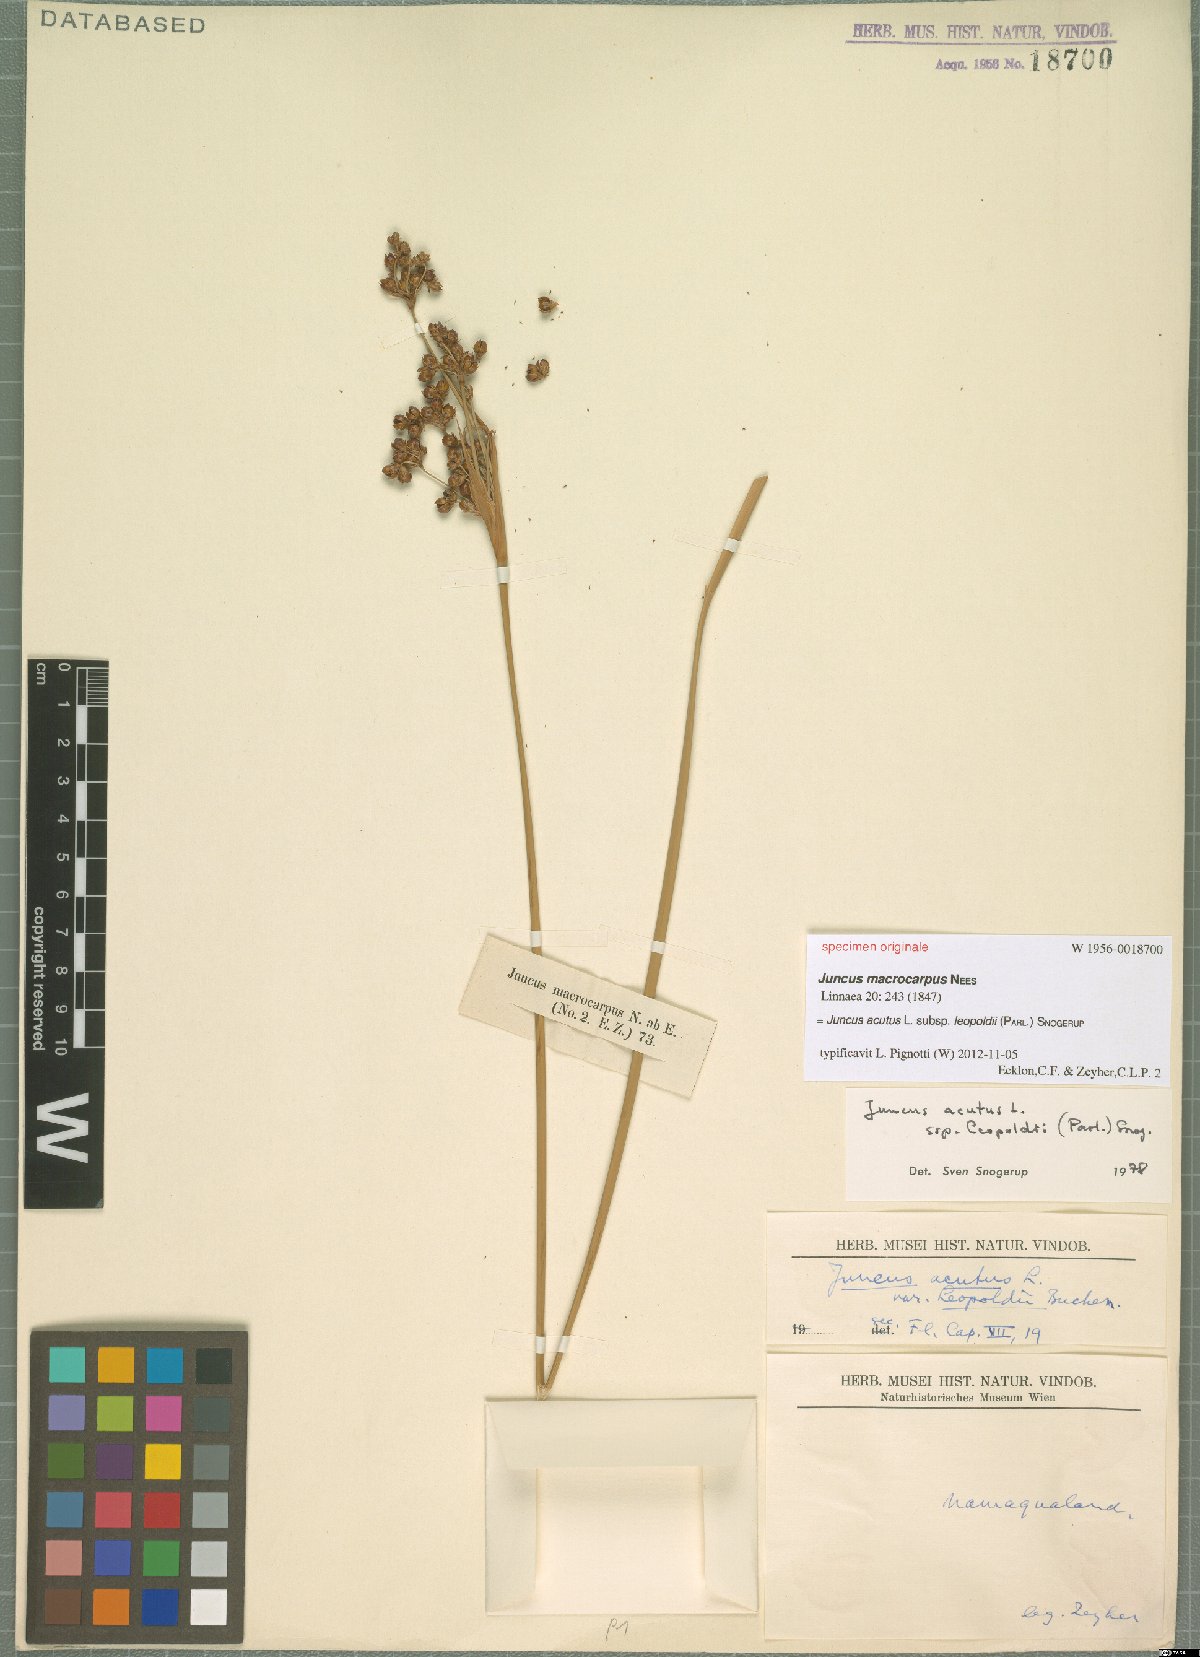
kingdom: Plantae
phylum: Tracheophyta
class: Liliopsida
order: Poales
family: Juncaceae
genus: Juncus
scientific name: Juncus acutus
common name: Sharp rush
